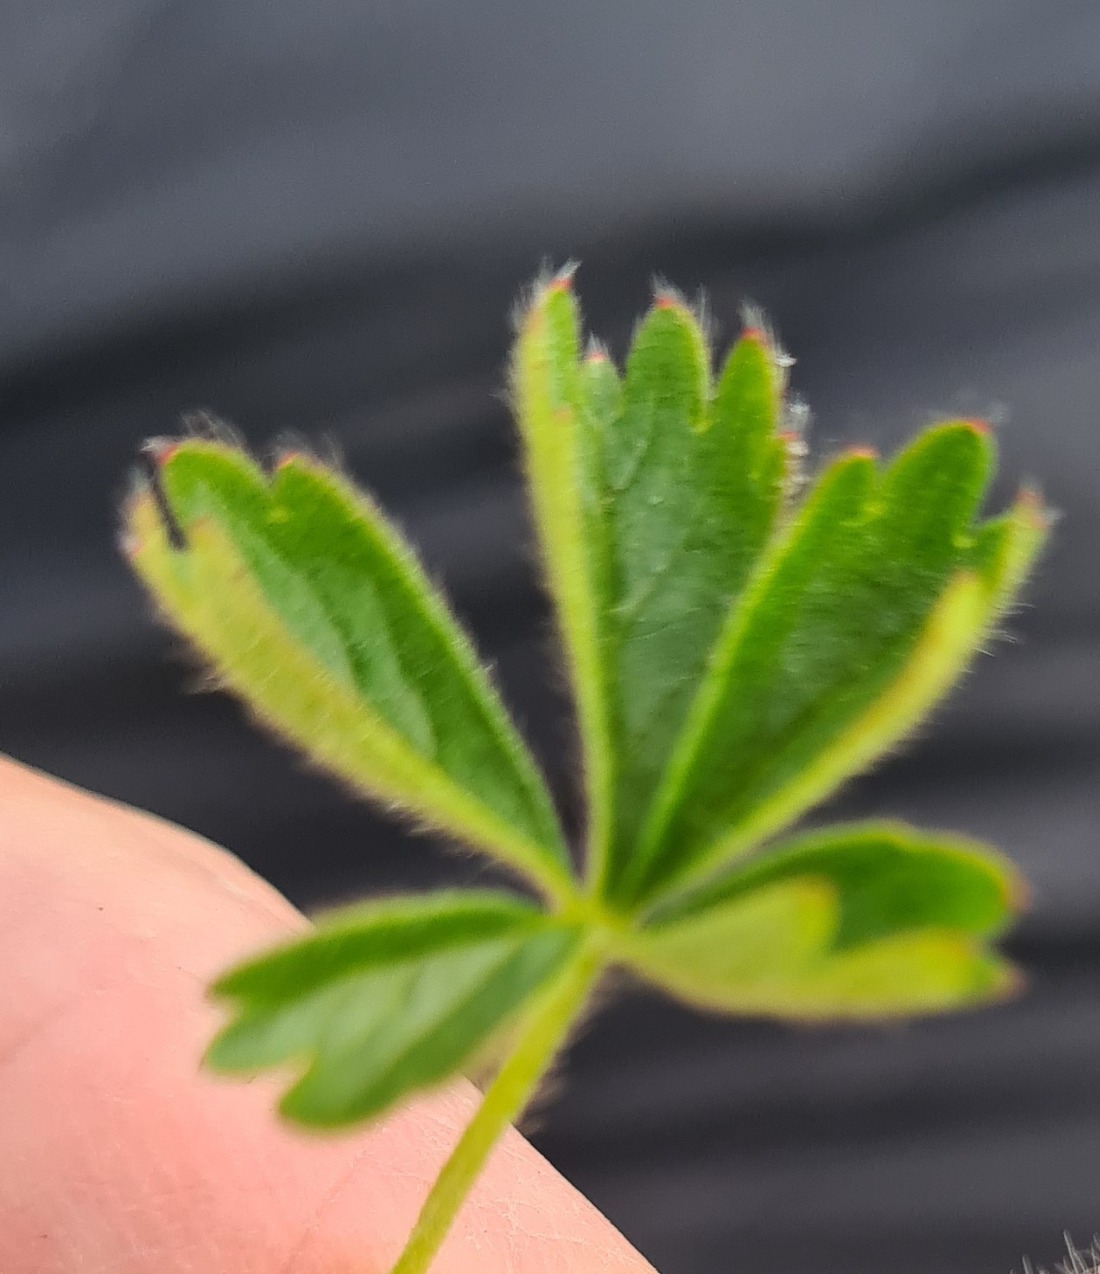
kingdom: Plantae
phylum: Tracheophyta
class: Magnoliopsida
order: Rosales
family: Rosaceae
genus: Potentilla
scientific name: Potentilla verna
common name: Vår-potentil
